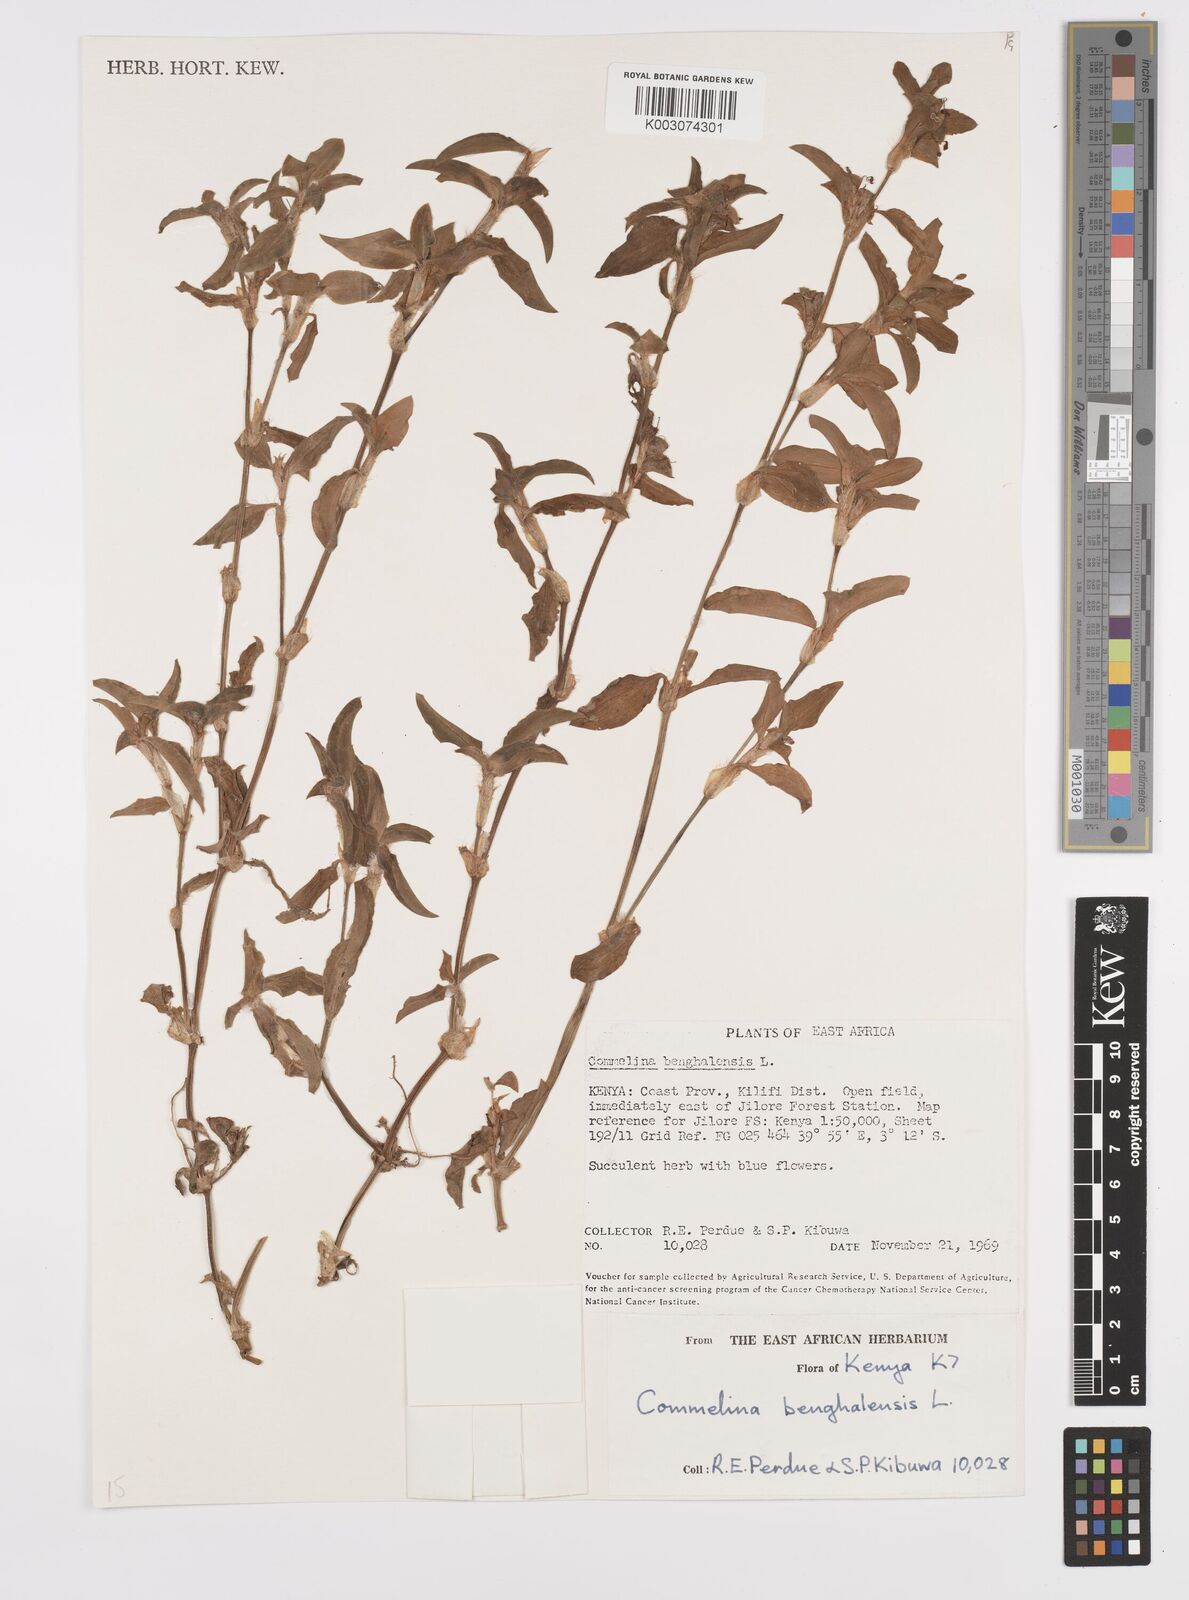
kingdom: Plantae
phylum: Tracheophyta
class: Liliopsida
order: Commelinales
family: Commelinaceae
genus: Commelina
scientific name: Commelina benghalensis
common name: Jio
